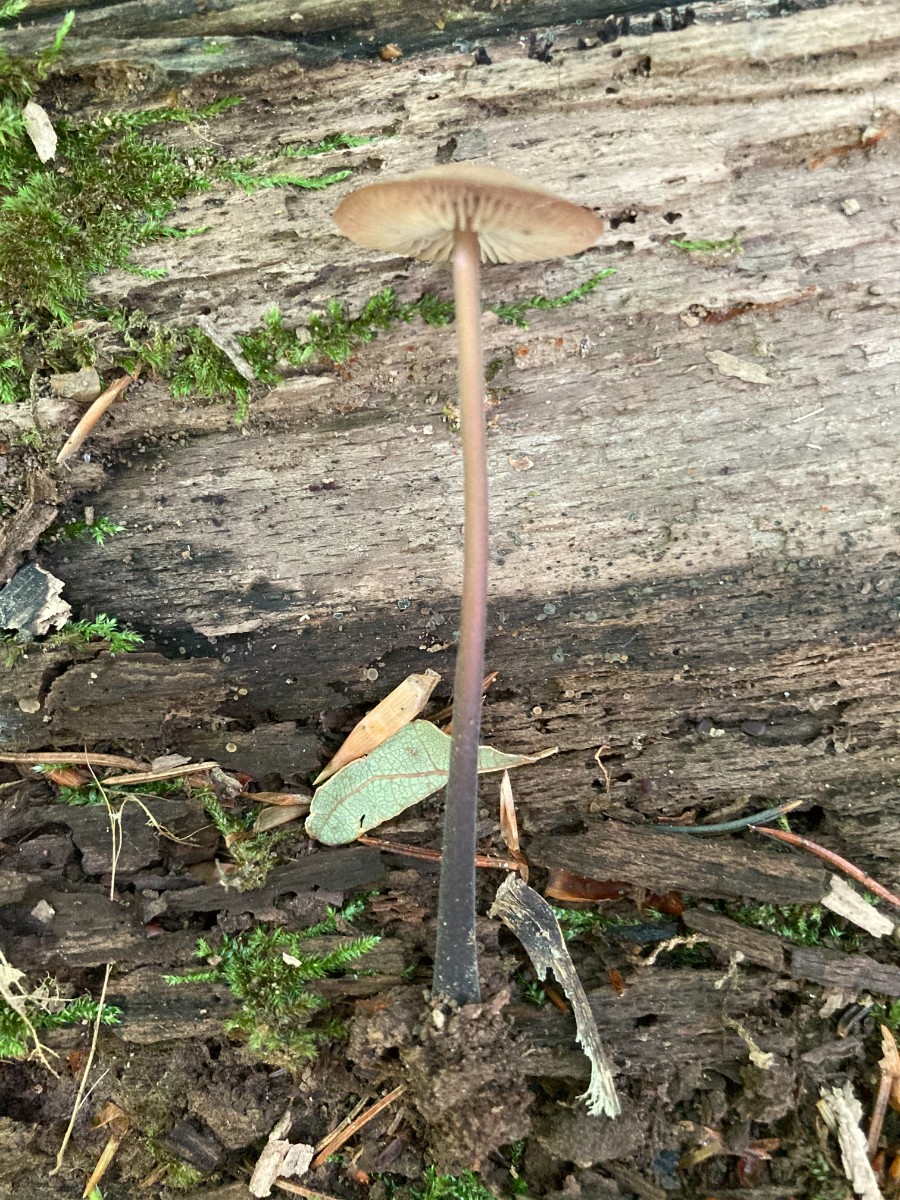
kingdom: Fungi
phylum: Basidiomycota
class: Agaricomycetes
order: Agaricales
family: Omphalotaceae
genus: Mycetinis
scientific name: Mycetinis alliaceus
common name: stor løghat
